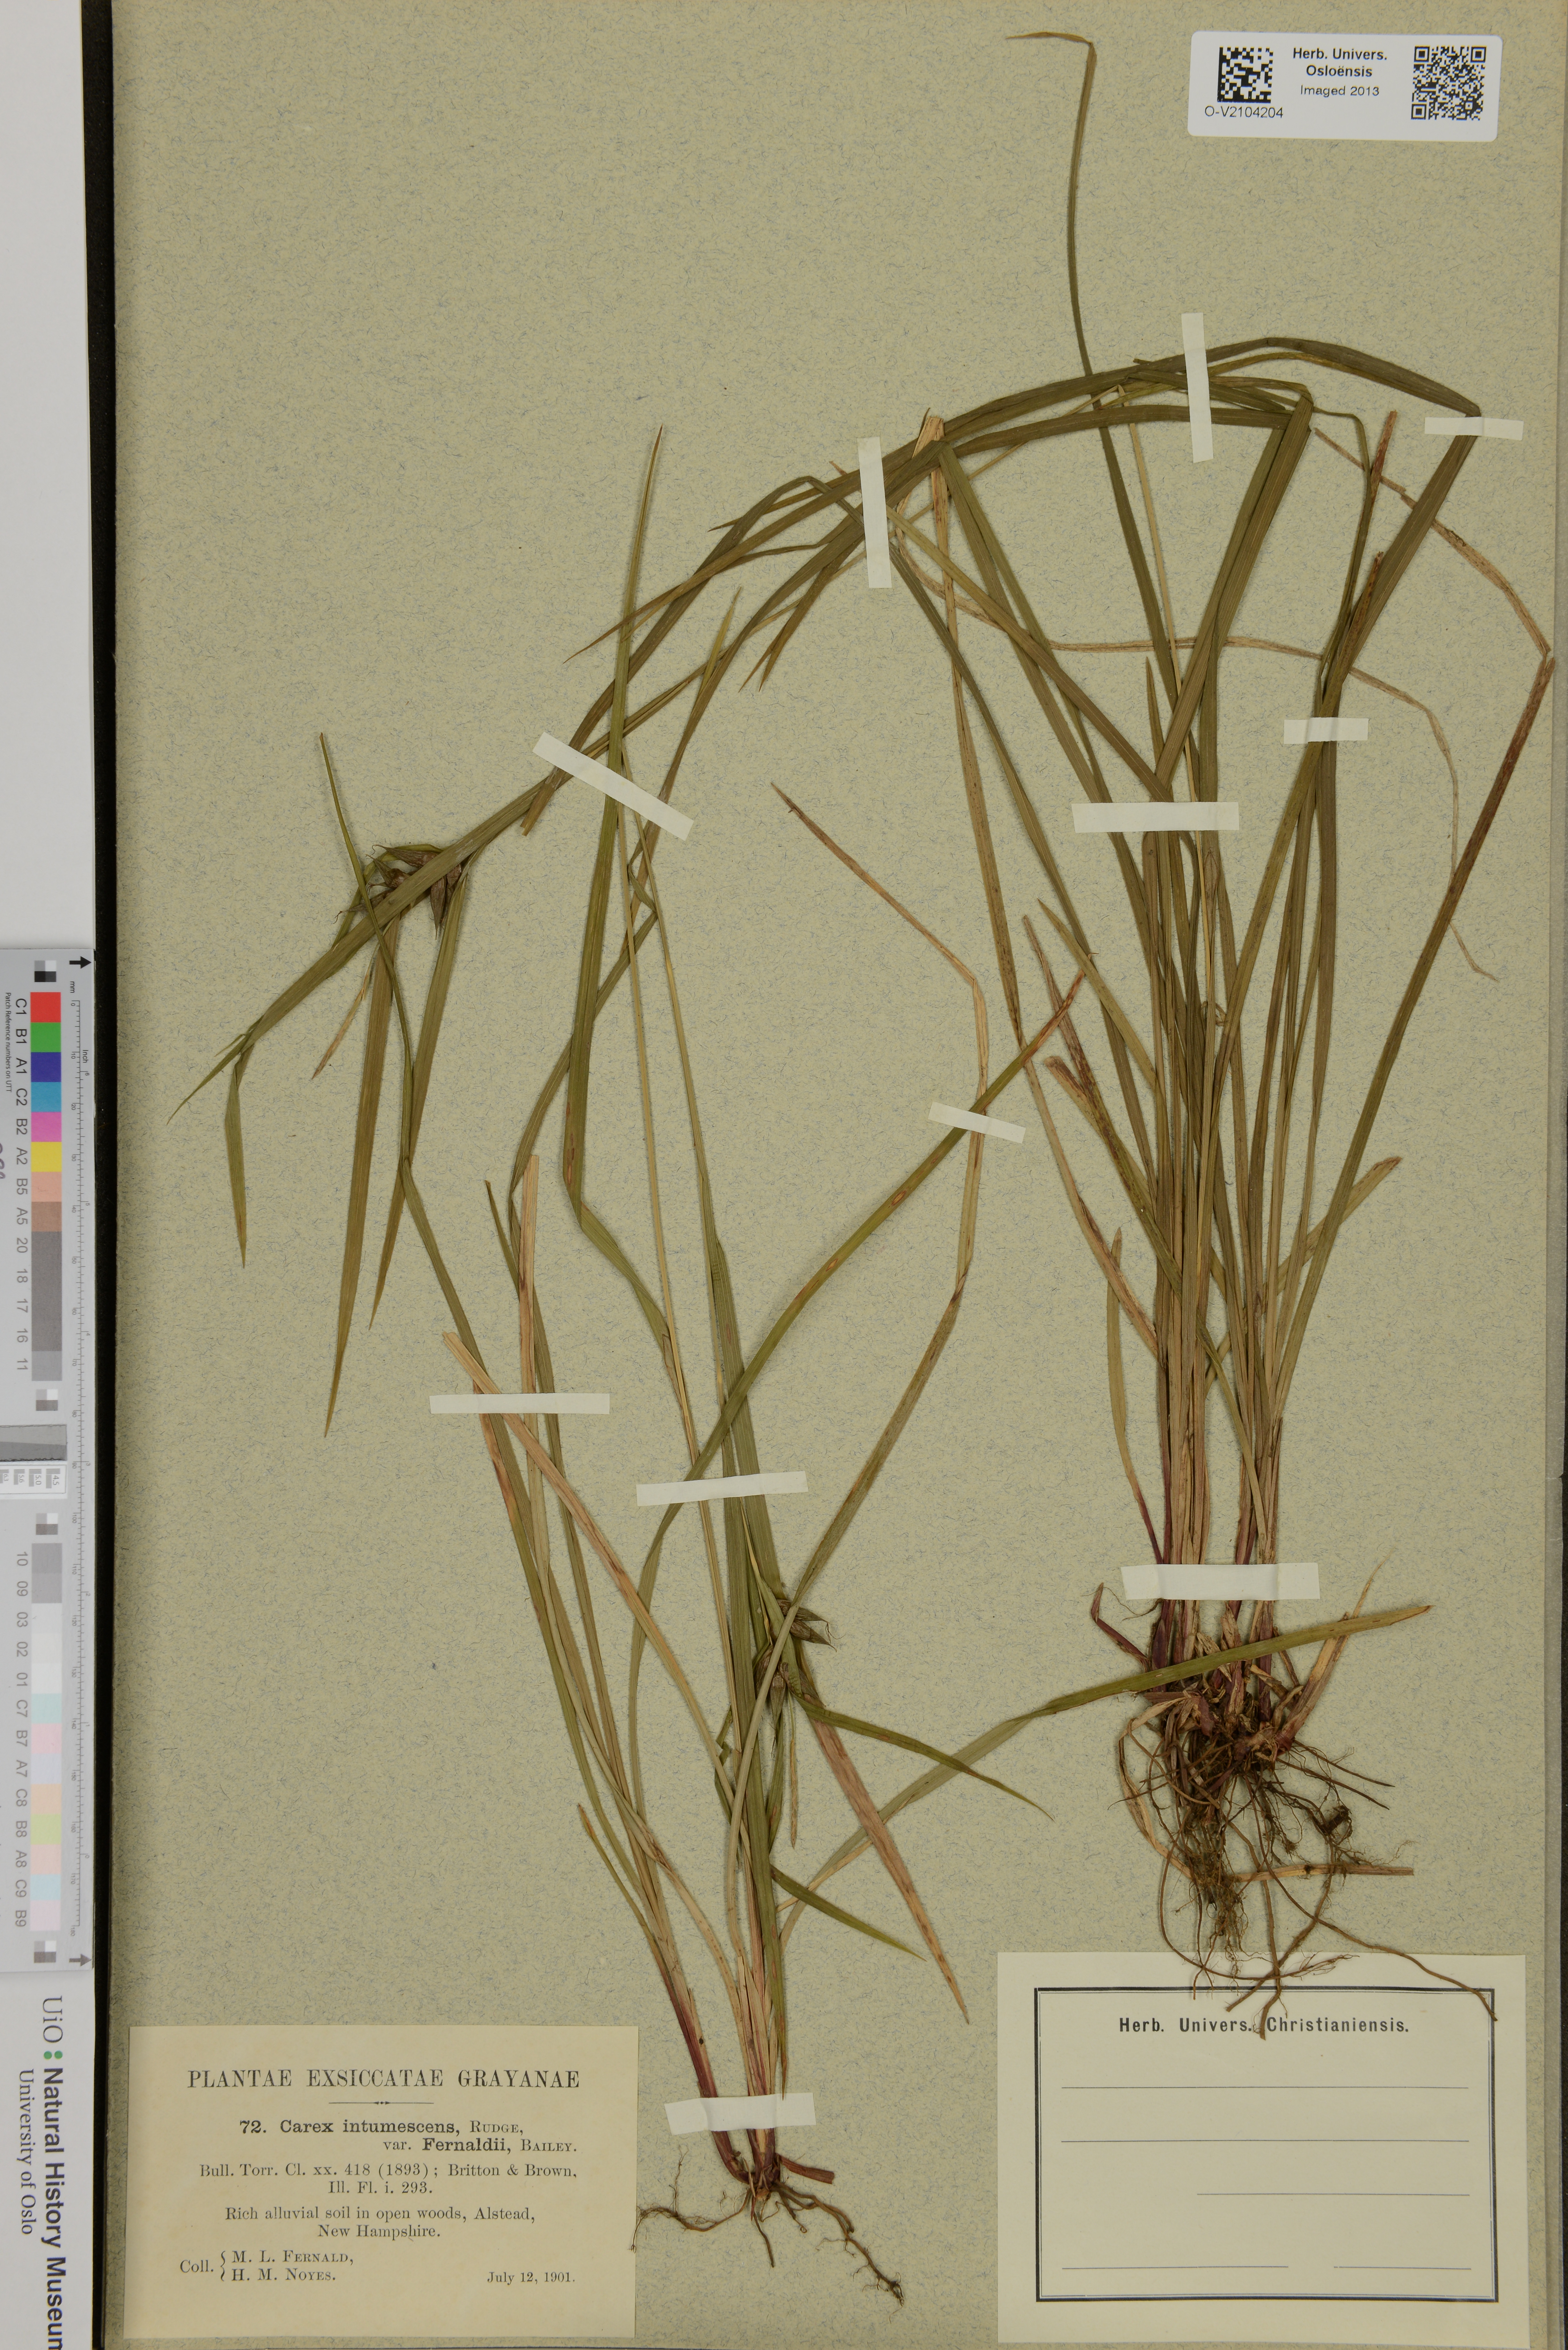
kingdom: Plantae
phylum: Tracheophyta
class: Liliopsida
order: Poales
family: Cyperaceae
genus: Carex
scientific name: Carex intumescens
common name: Greater bladder sedge
